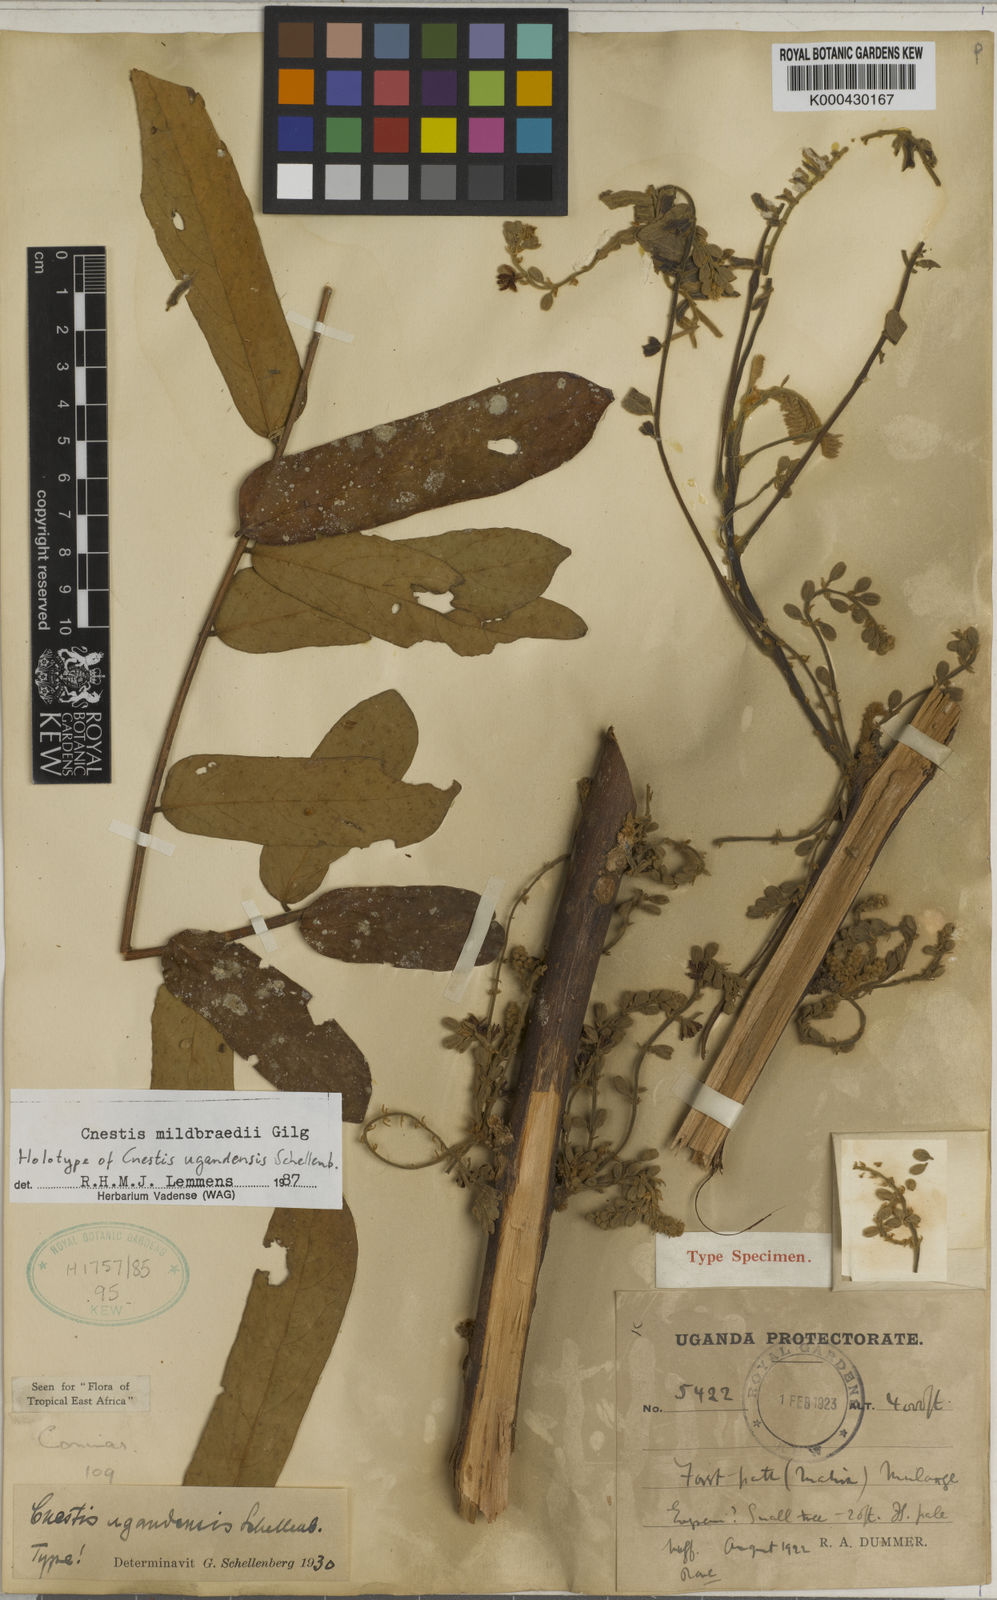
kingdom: Plantae
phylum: Tracheophyta
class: Magnoliopsida
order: Oxalidales
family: Connaraceae
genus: Cnestis
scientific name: Cnestis mildbraedii
